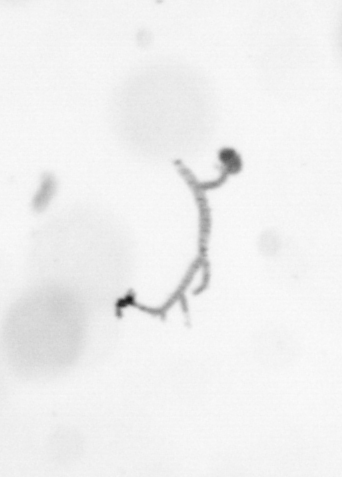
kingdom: Chromista
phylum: Ochrophyta
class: Bacillariophyceae
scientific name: Bacillariophyceae
